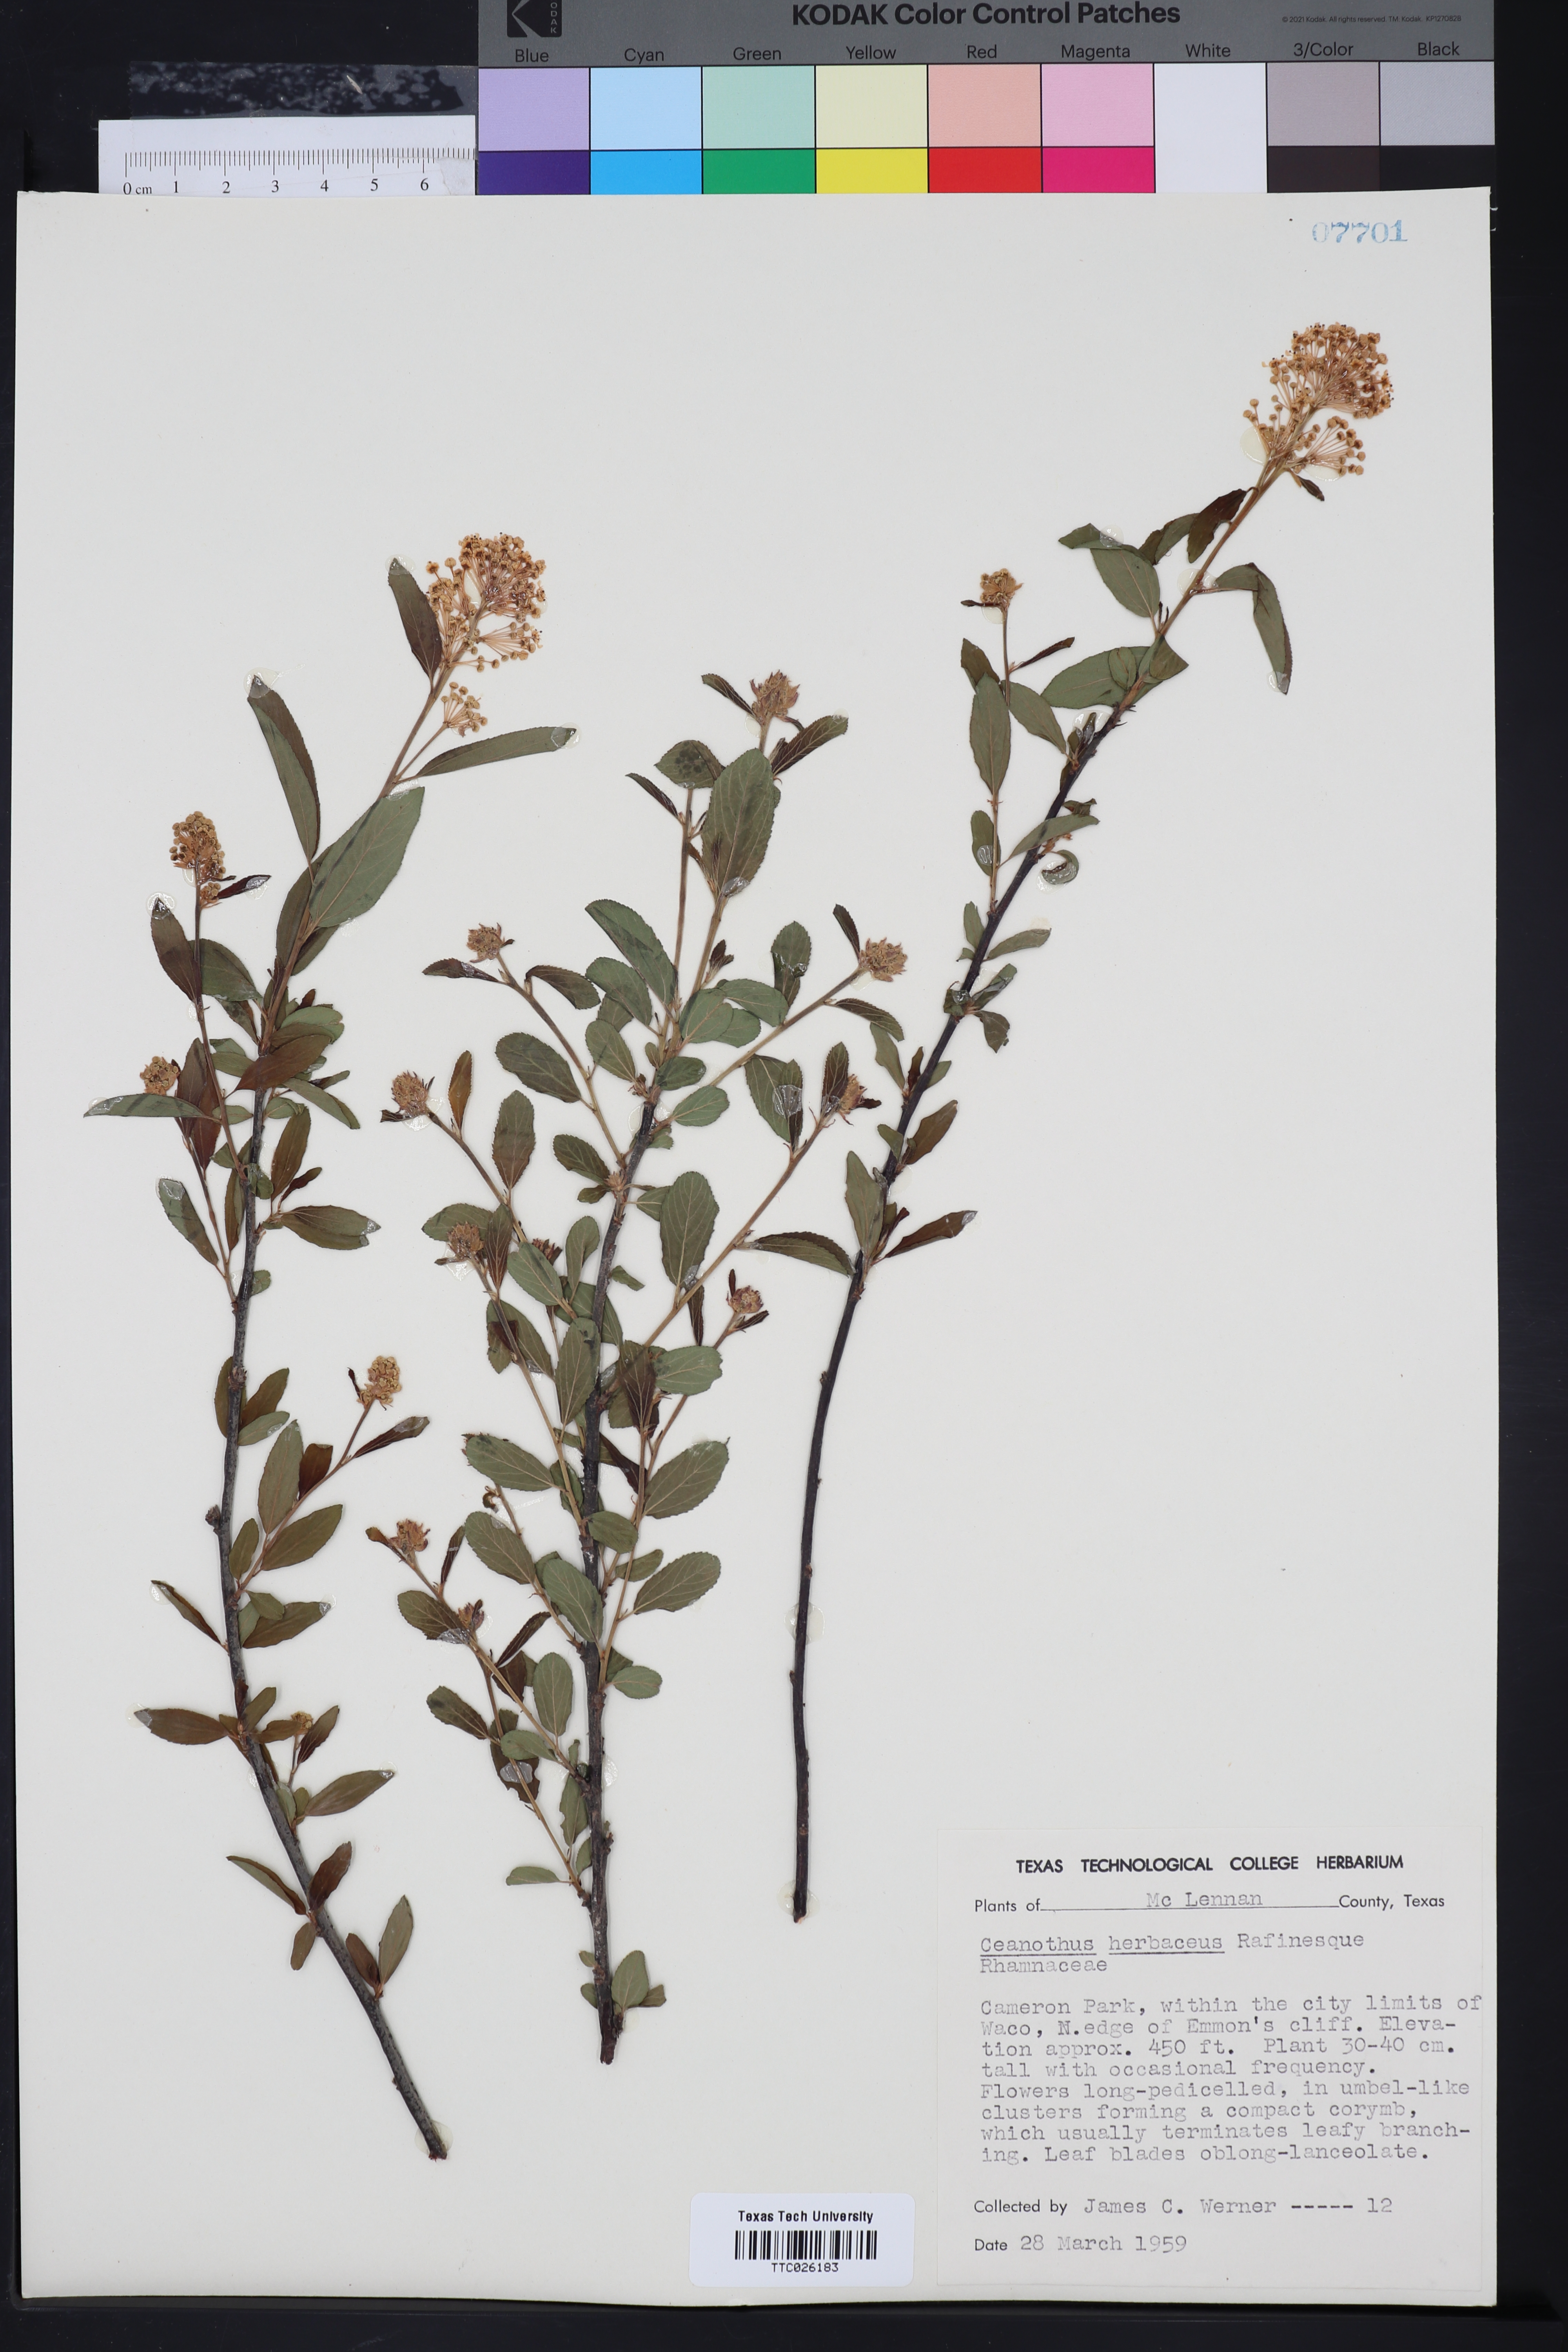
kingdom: Plantae
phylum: Tracheophyta
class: Magnoliopsida
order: Rosales
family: Rhamnaceae
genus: Ceanothus
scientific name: Ceanothus herbaceus
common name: Inland ceanothus
